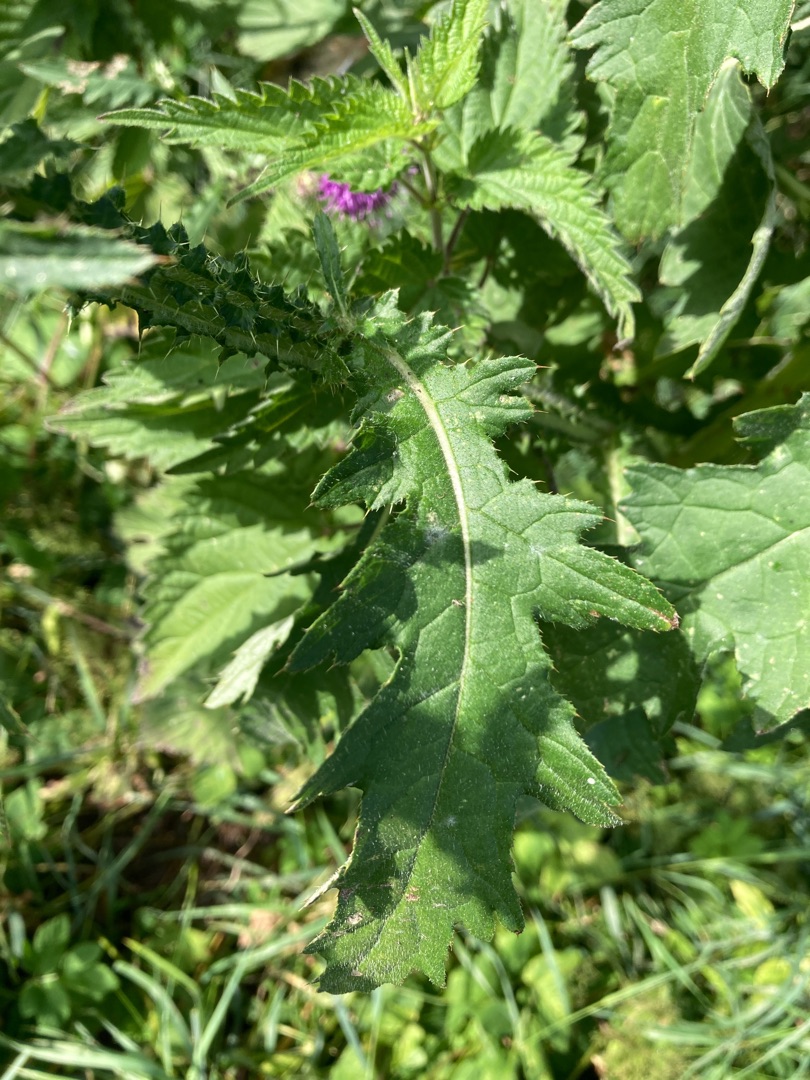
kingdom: Plantae
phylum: Tracheophyta
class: Magnoliopsida
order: Asterales
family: Asteraceae
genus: Carduus
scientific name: Carduus crispus
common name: Kruset tidsel
